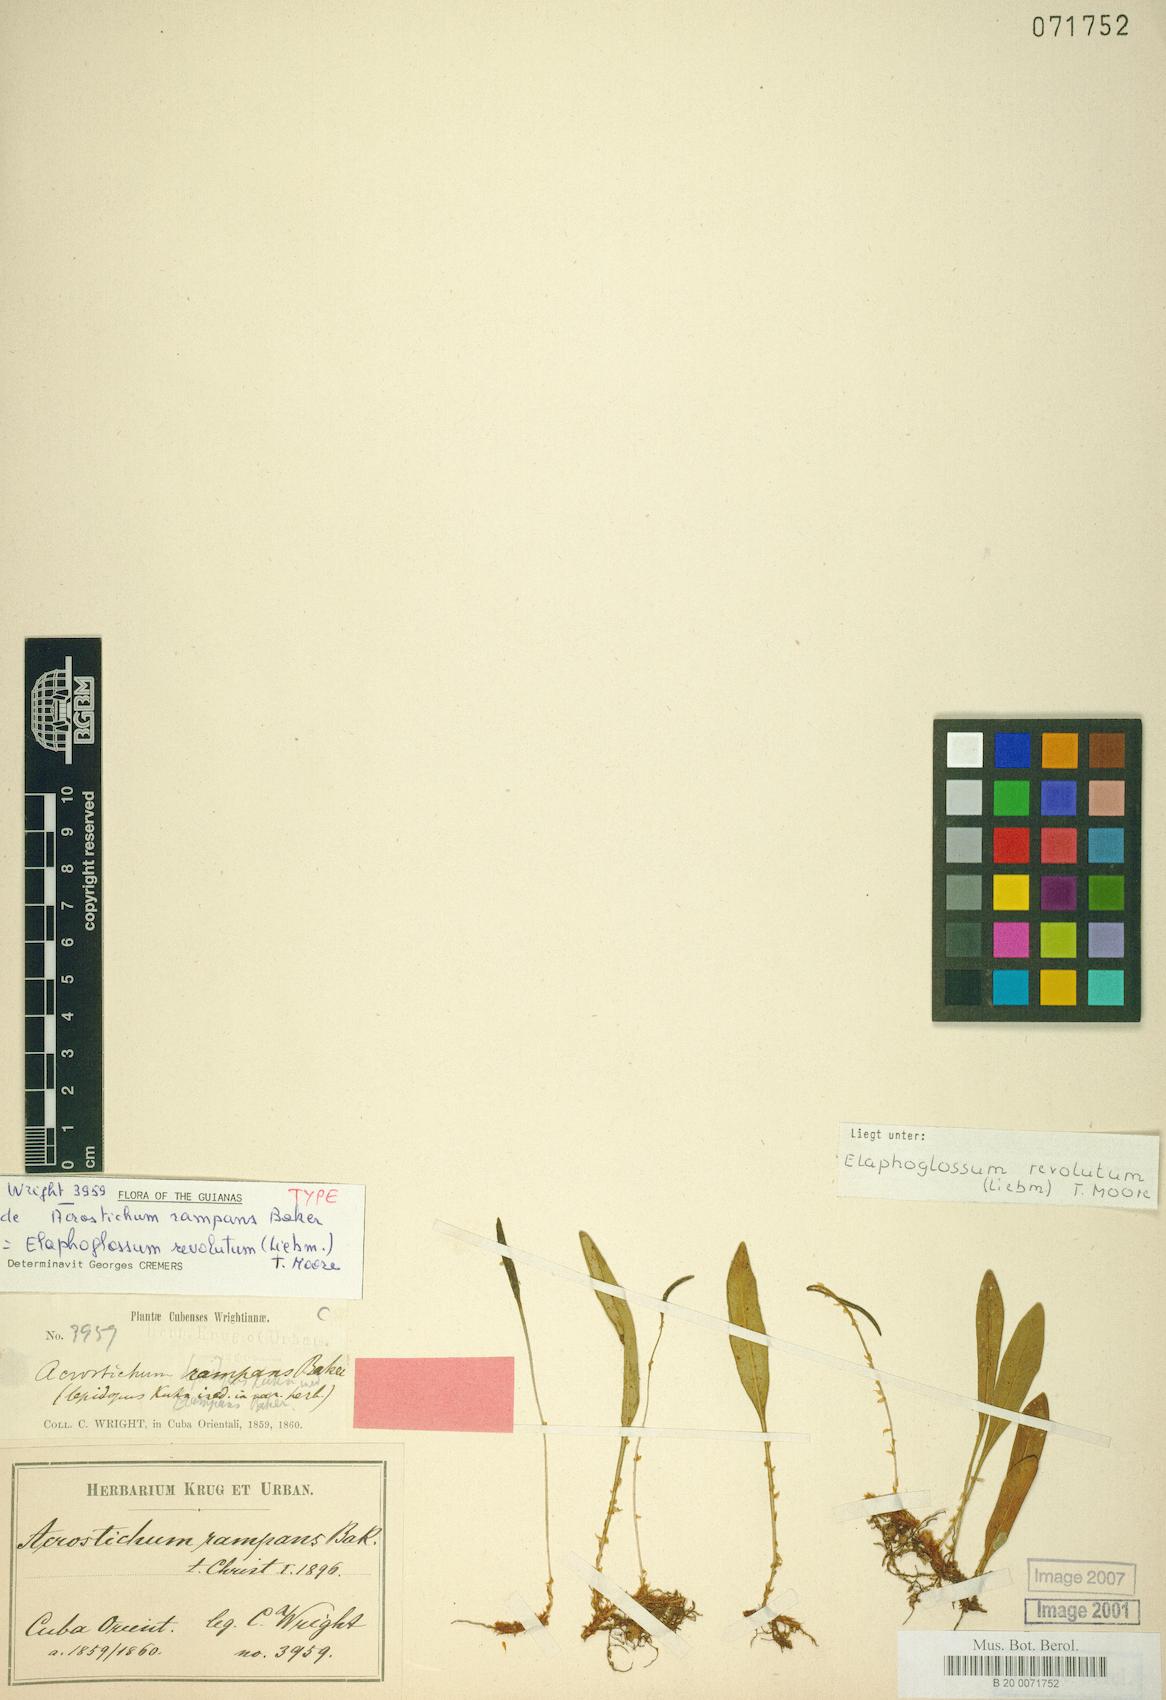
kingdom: Plantae
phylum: Tracheophyta
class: Polypodiopsida
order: Polypodiales
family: Dryopteridaceae
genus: Elaphoglossum
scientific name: Elaphoglossum revolutum
